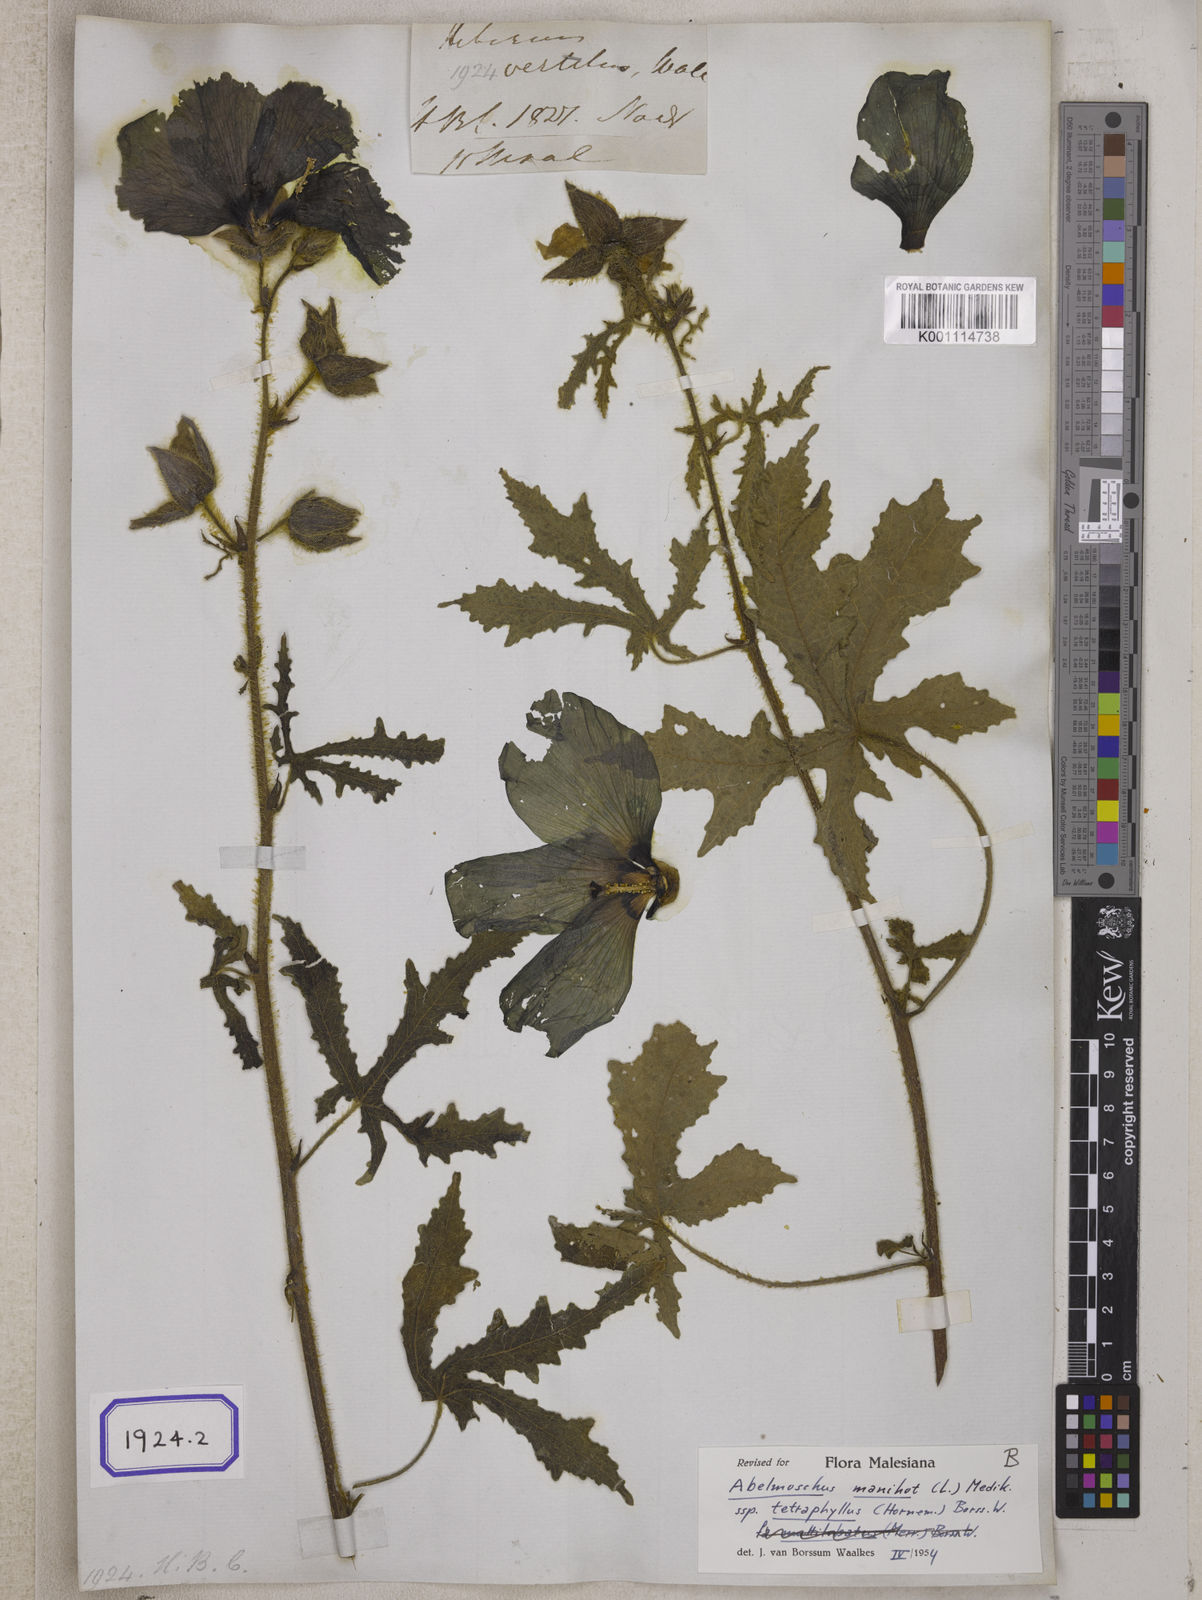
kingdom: Plantae
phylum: Tracheophyta
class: Magnoliopsida
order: Malvales
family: Malvaceae
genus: Bamia
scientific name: Bamia
